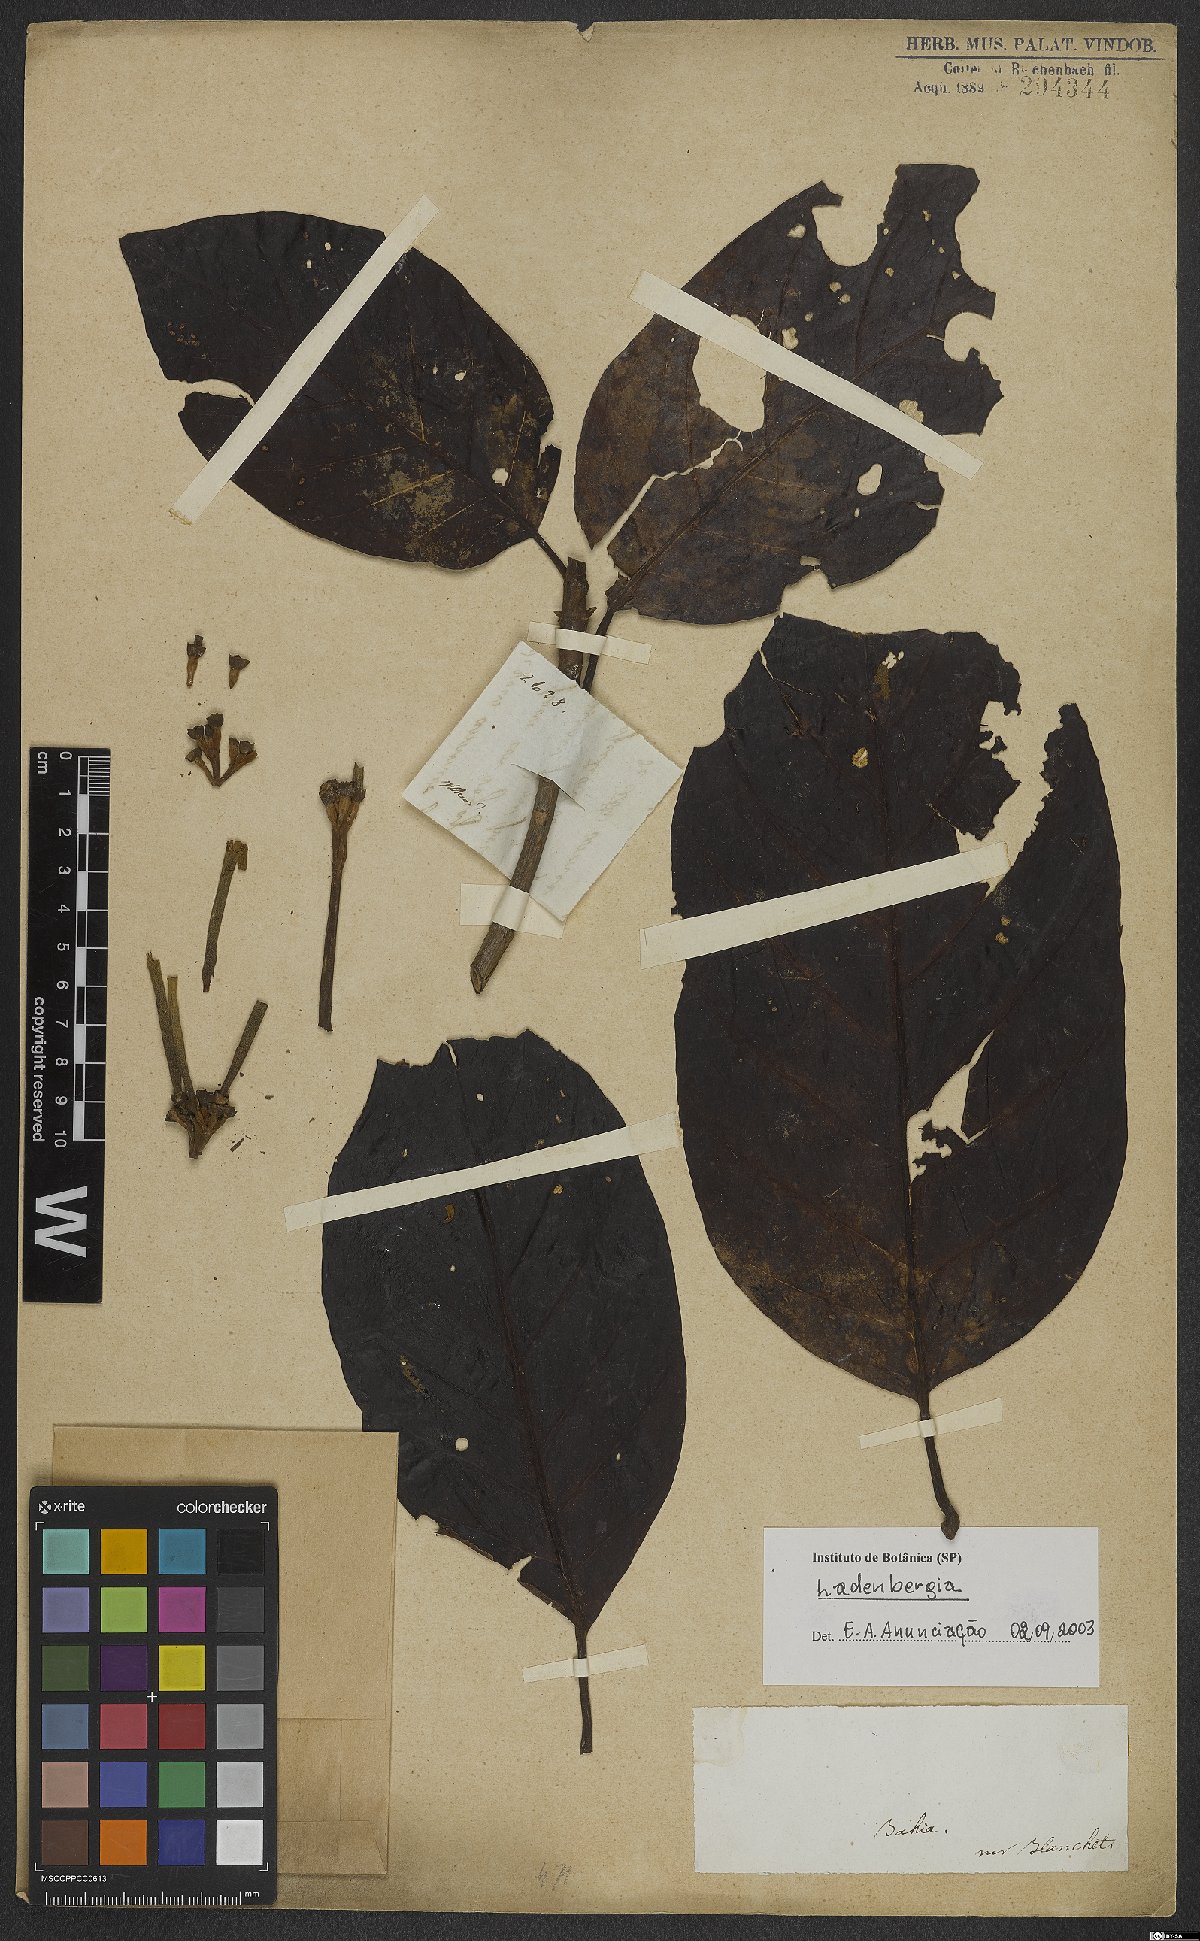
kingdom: Plantae
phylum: Tracheophyta
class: Magnoliopsida
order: Gentianales
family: Rubiaceae
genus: Ladenbergia
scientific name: Ladenbergia
